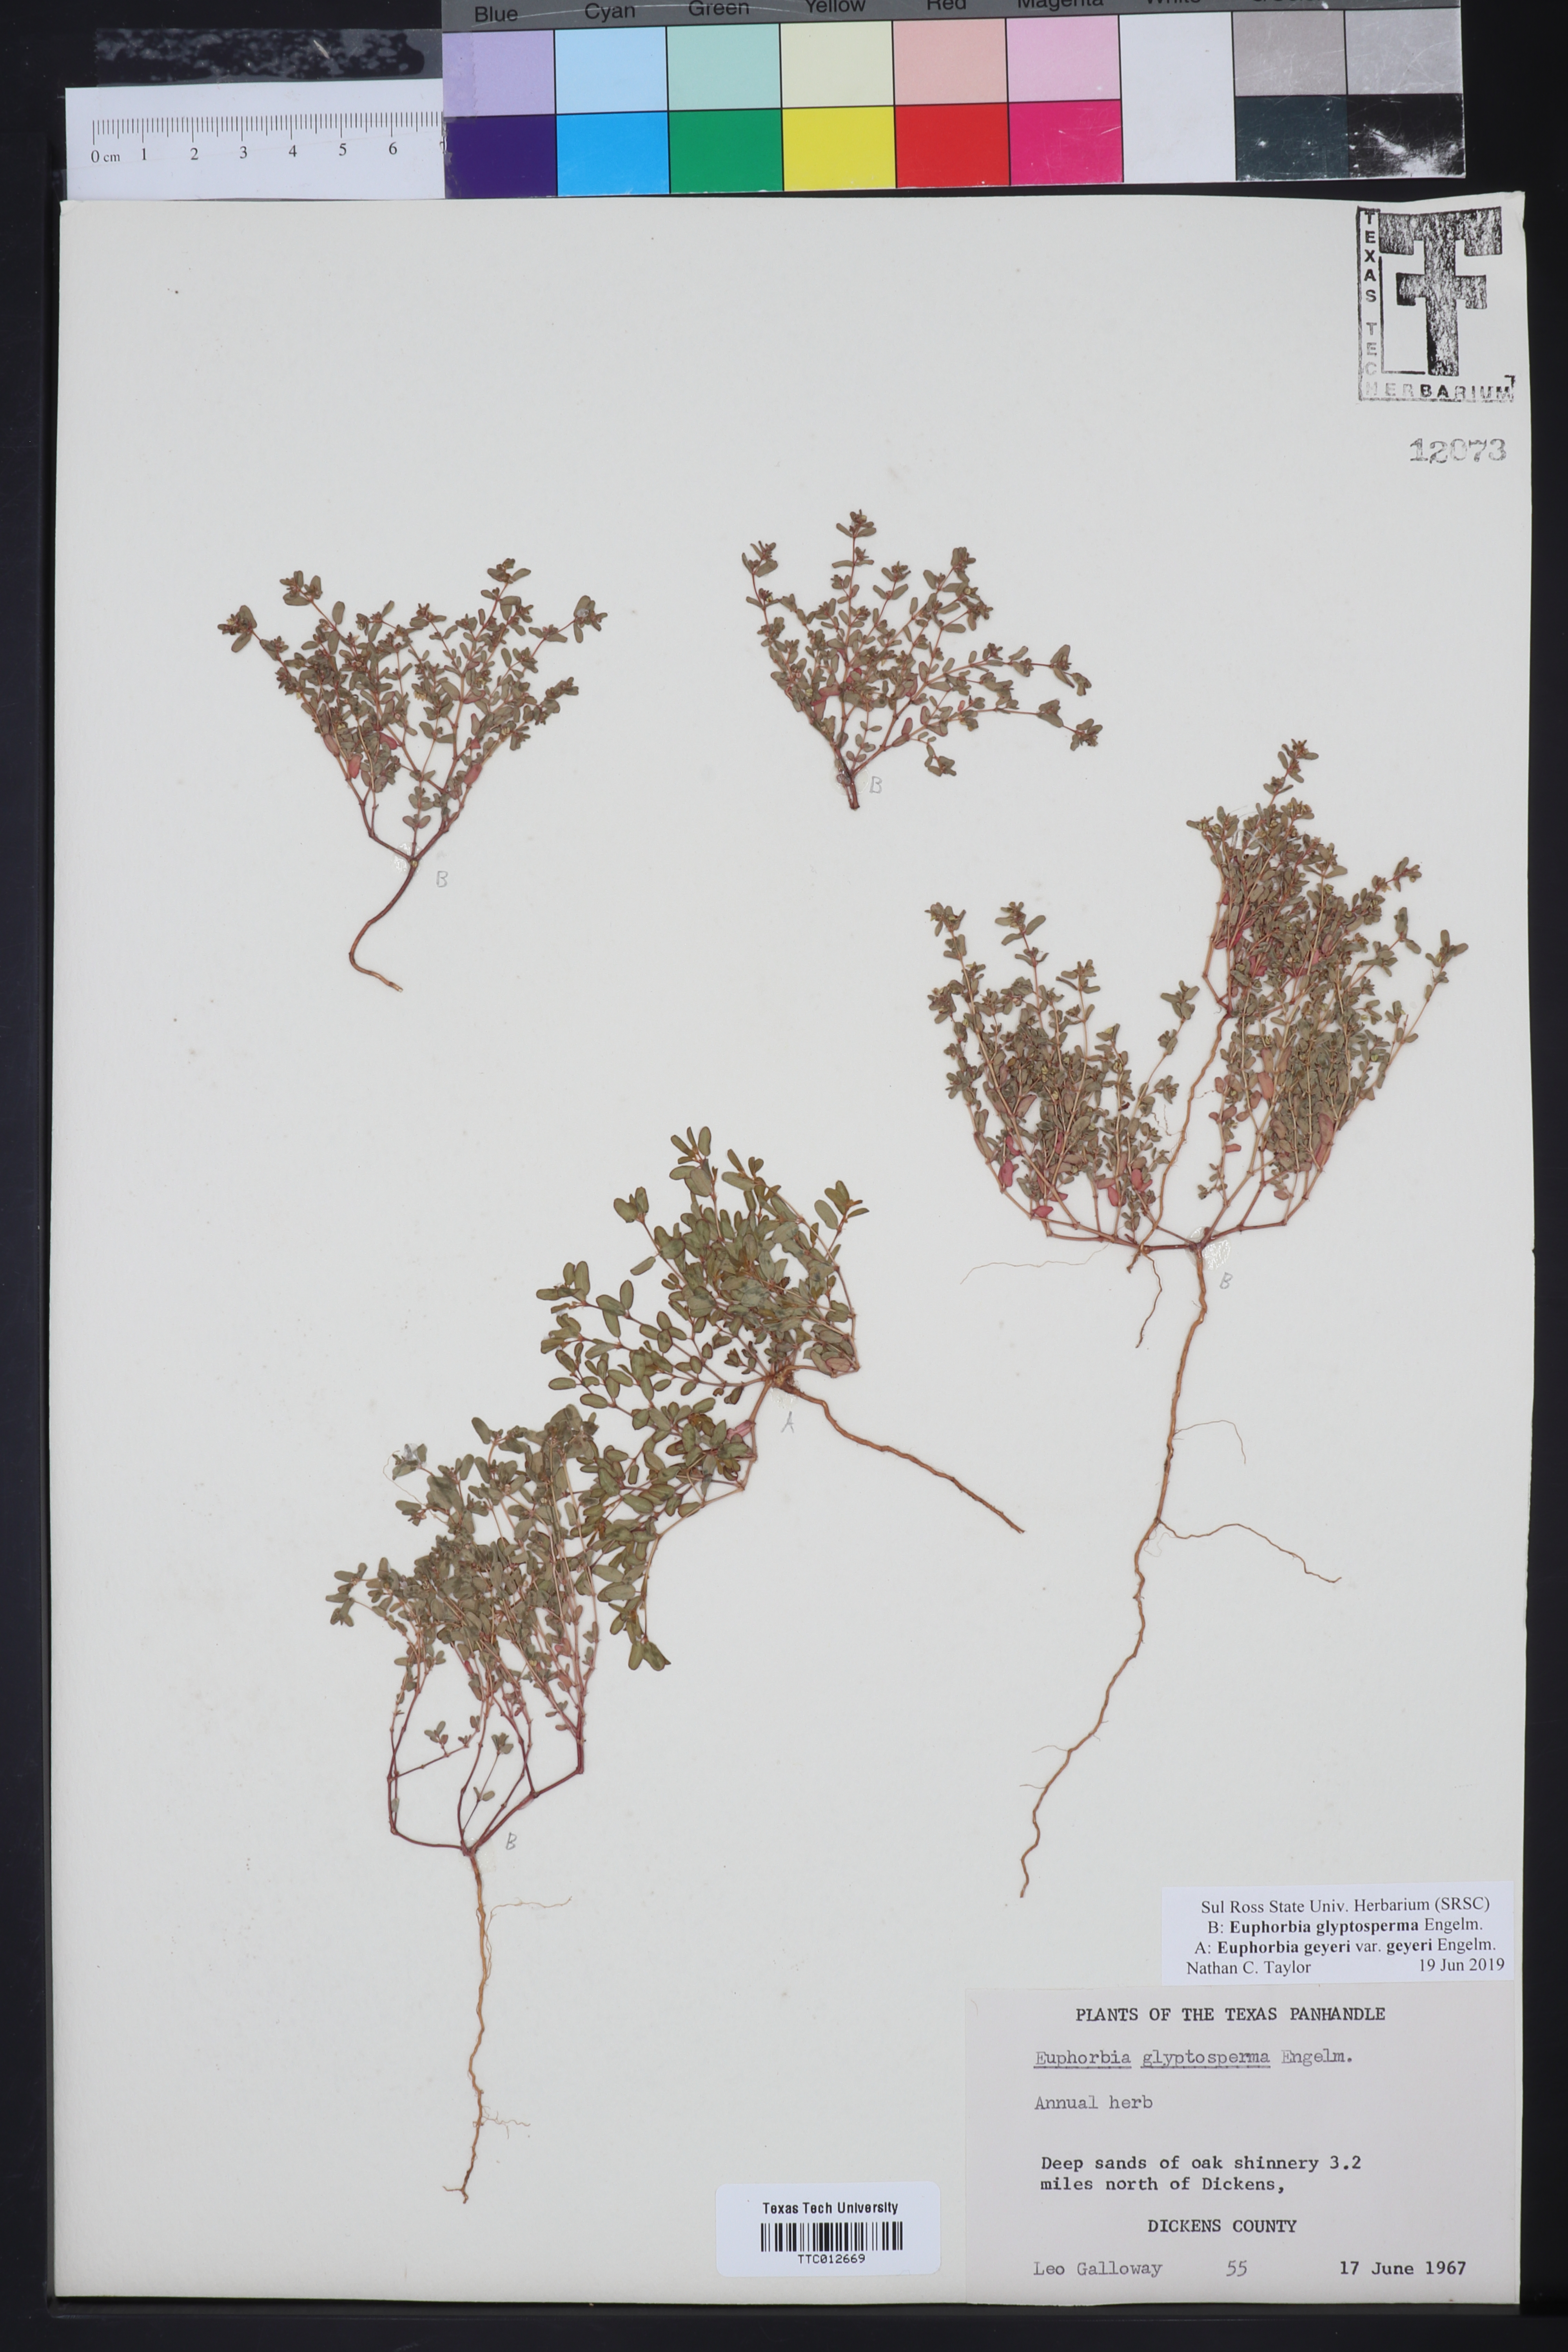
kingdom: Plantae
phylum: Tracheophyta
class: Magnoliopsida
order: Malpighiales
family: Euphorbiaceae
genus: Euphorbia
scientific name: Euphorbia
